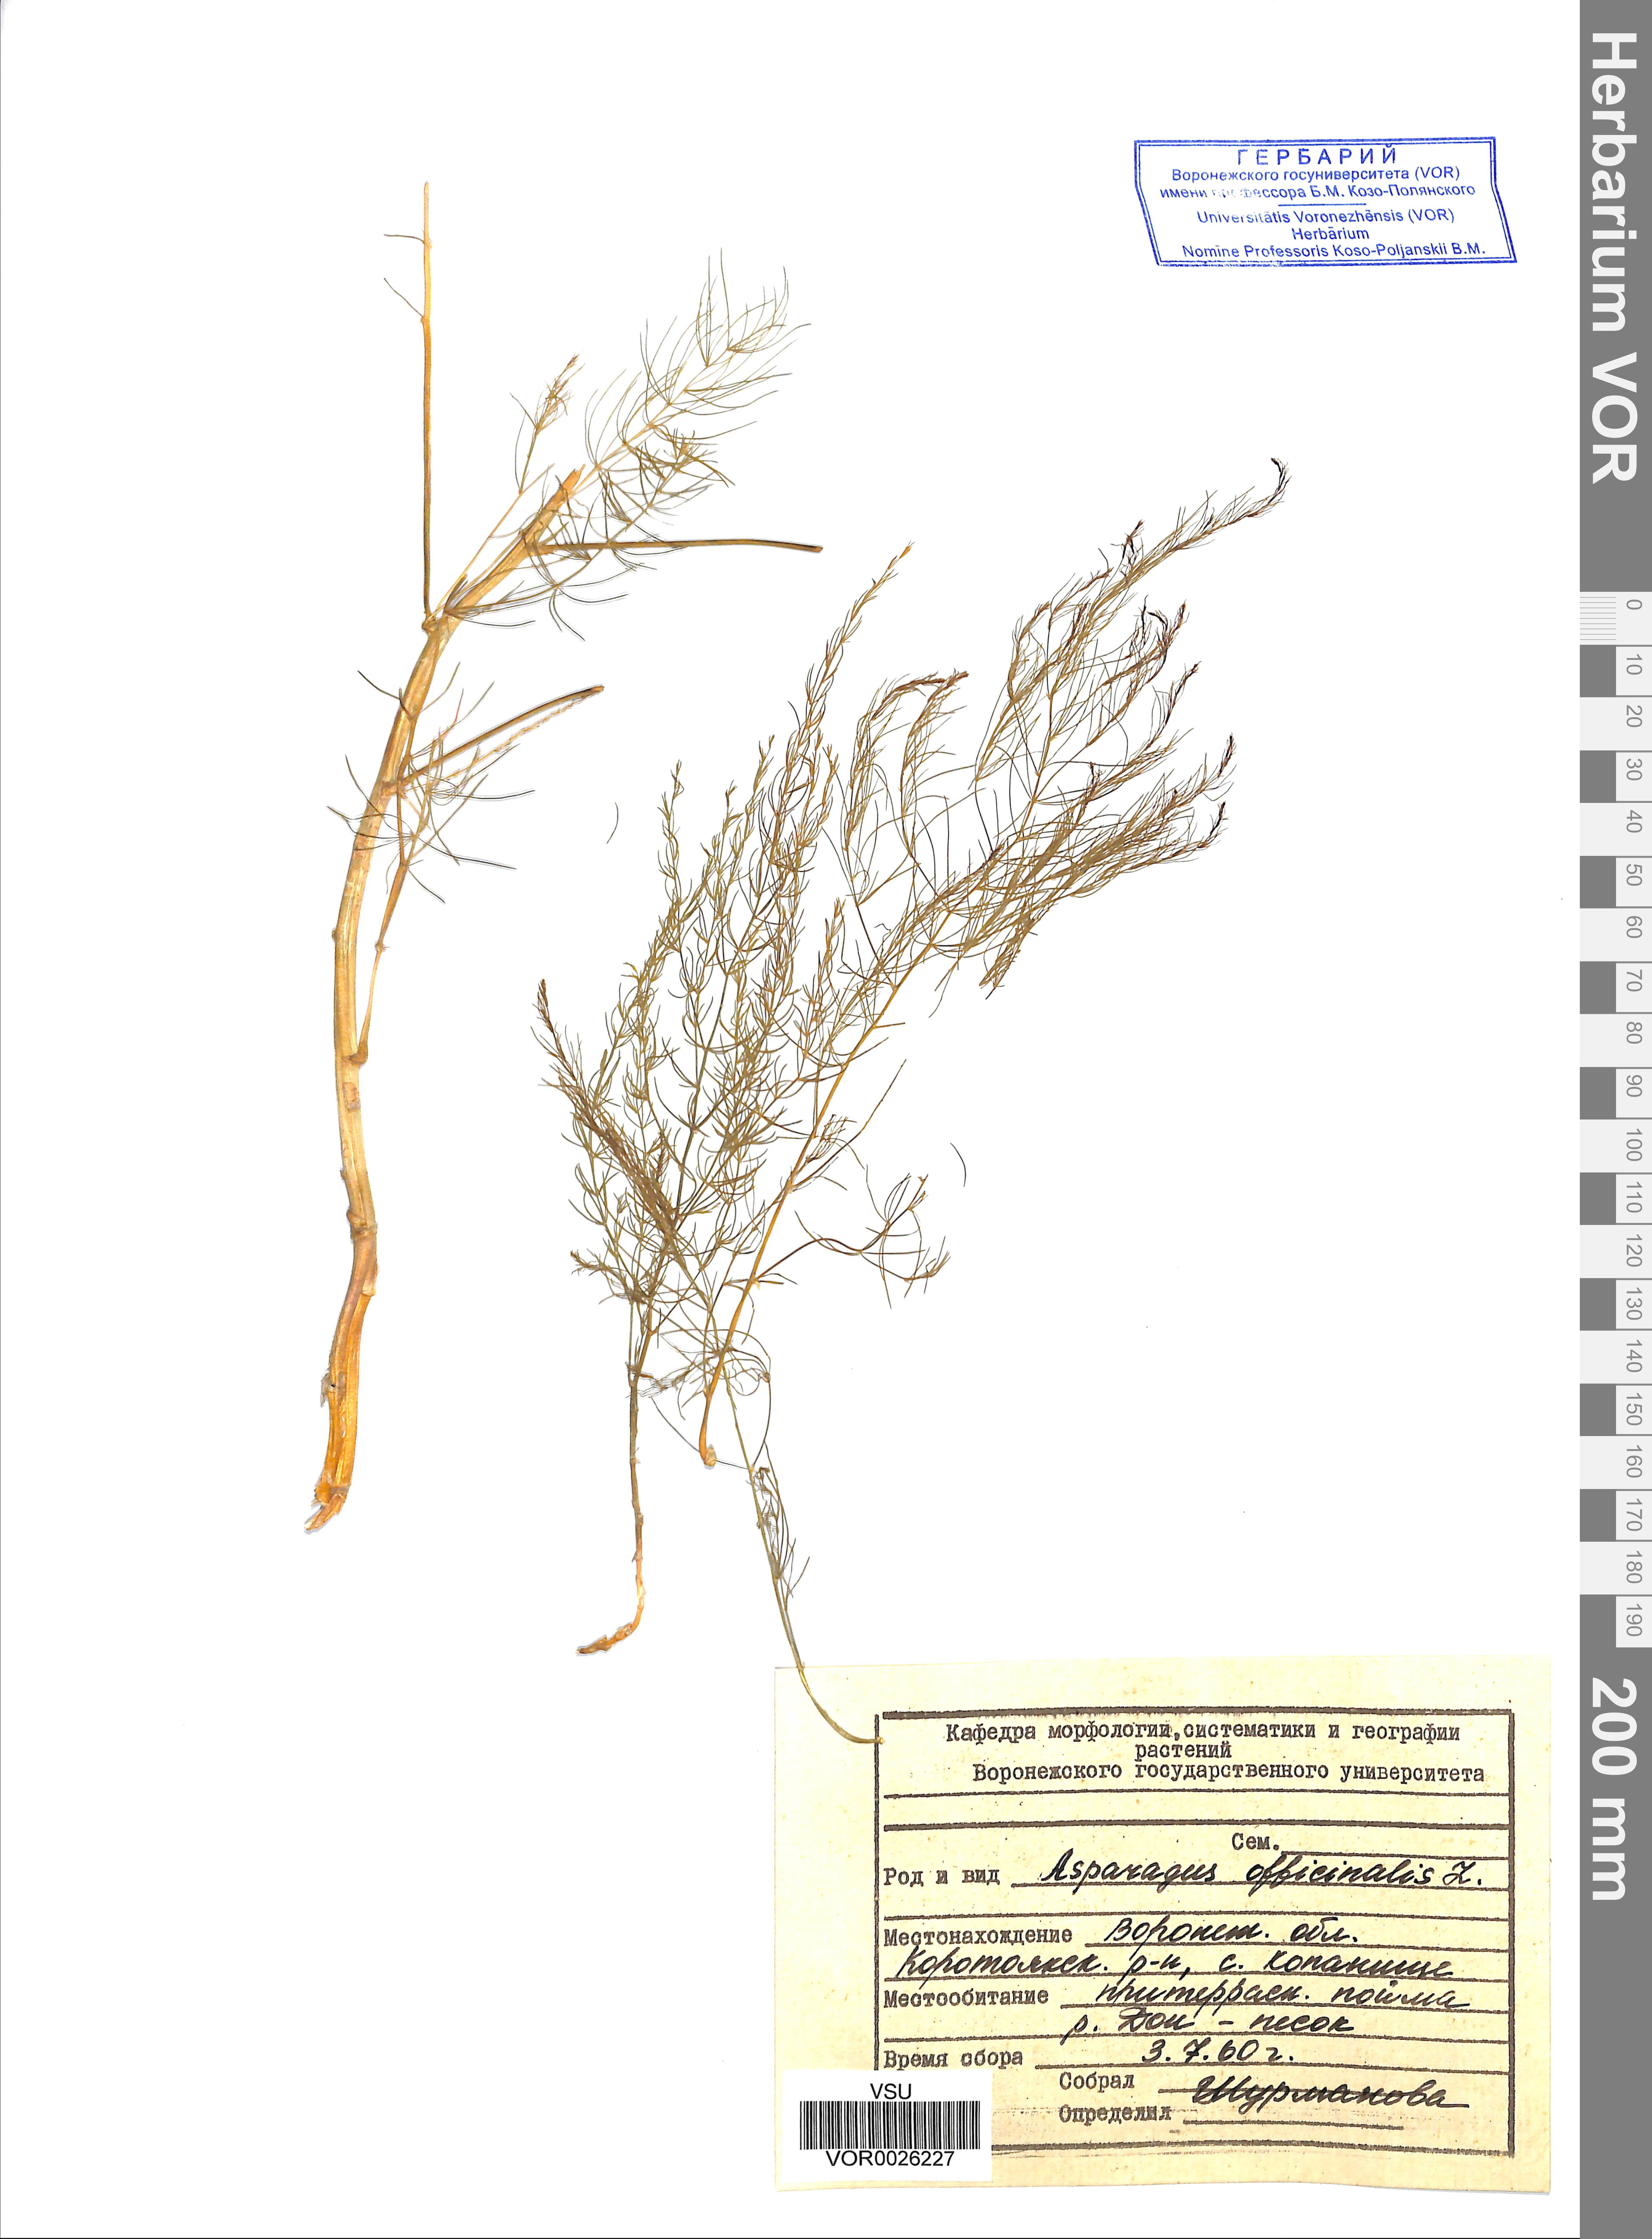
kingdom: Plantae
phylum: Tracheophyta
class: Liliopsida
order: Asparagales
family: Asparagaceae
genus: Asparagus
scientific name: Asparagus officinalis
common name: Garden asparagus
